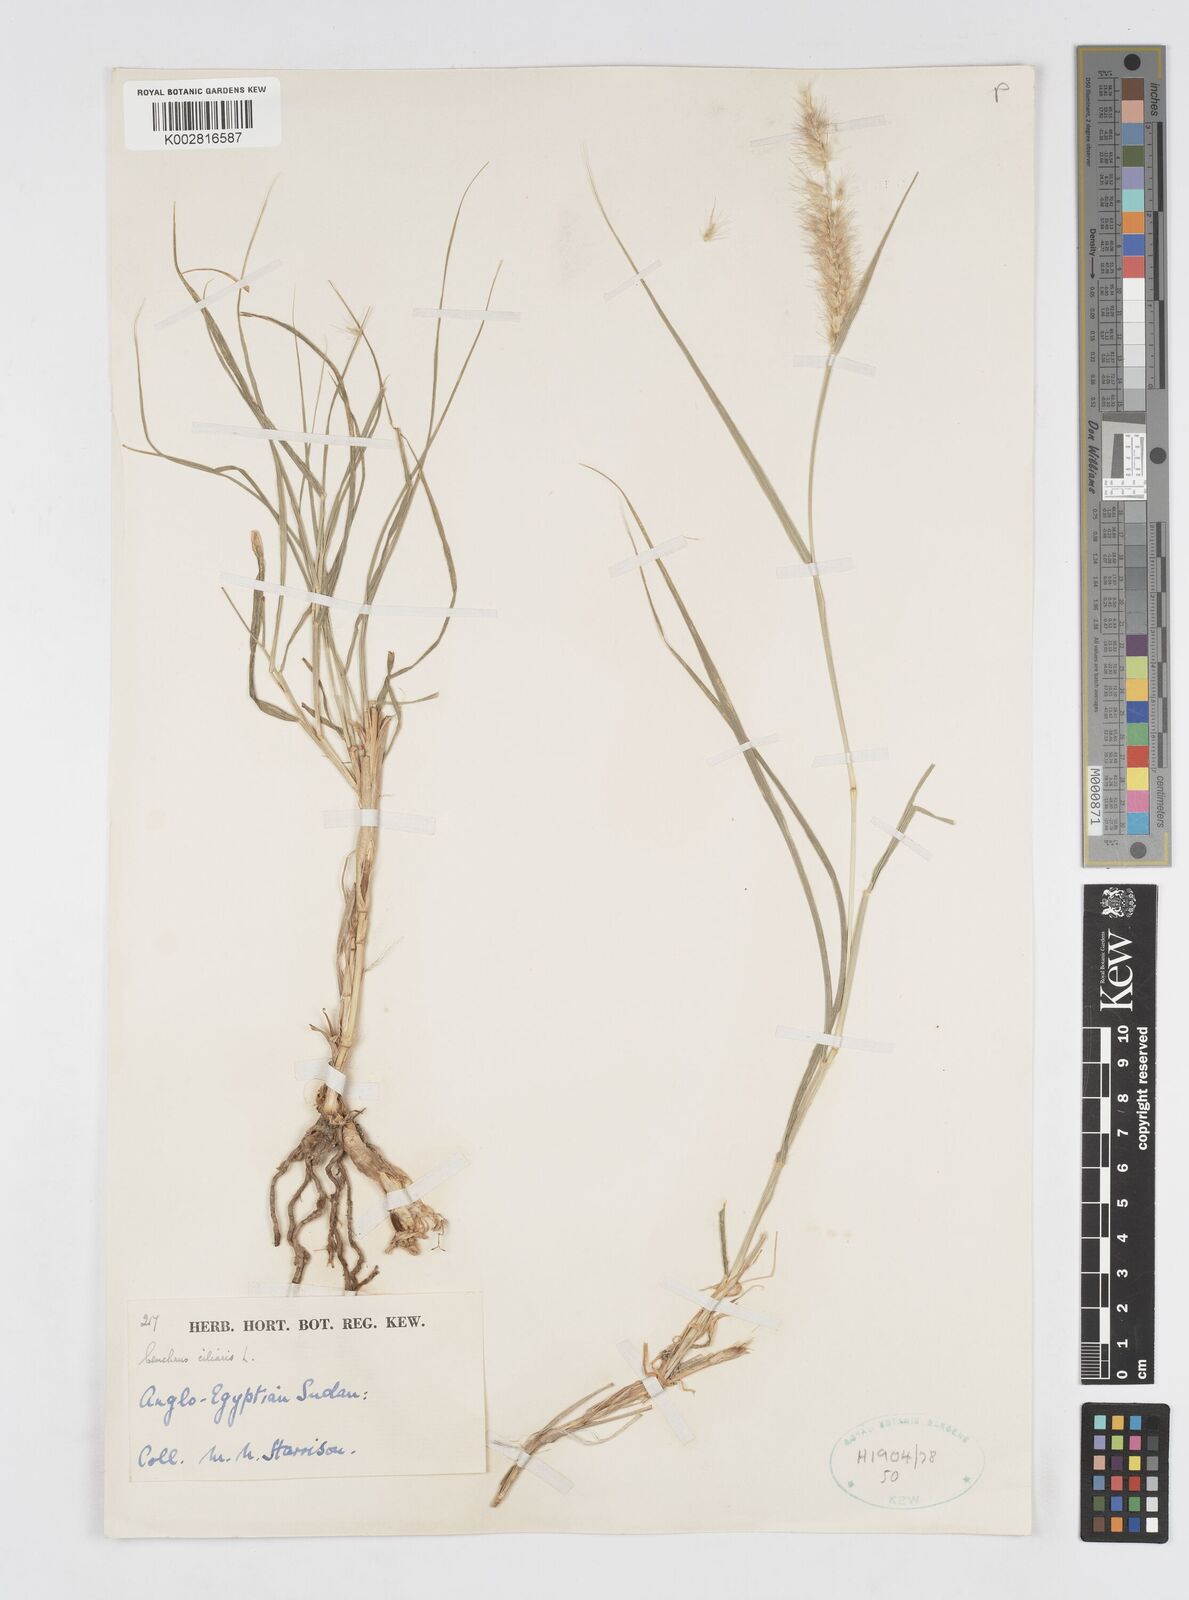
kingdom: Plantae
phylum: Tracheophyta
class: Liliopsida
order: Poales
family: Poaceae
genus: Cenchrus
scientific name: Cenchrus ciliaris
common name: Buffelgrass
